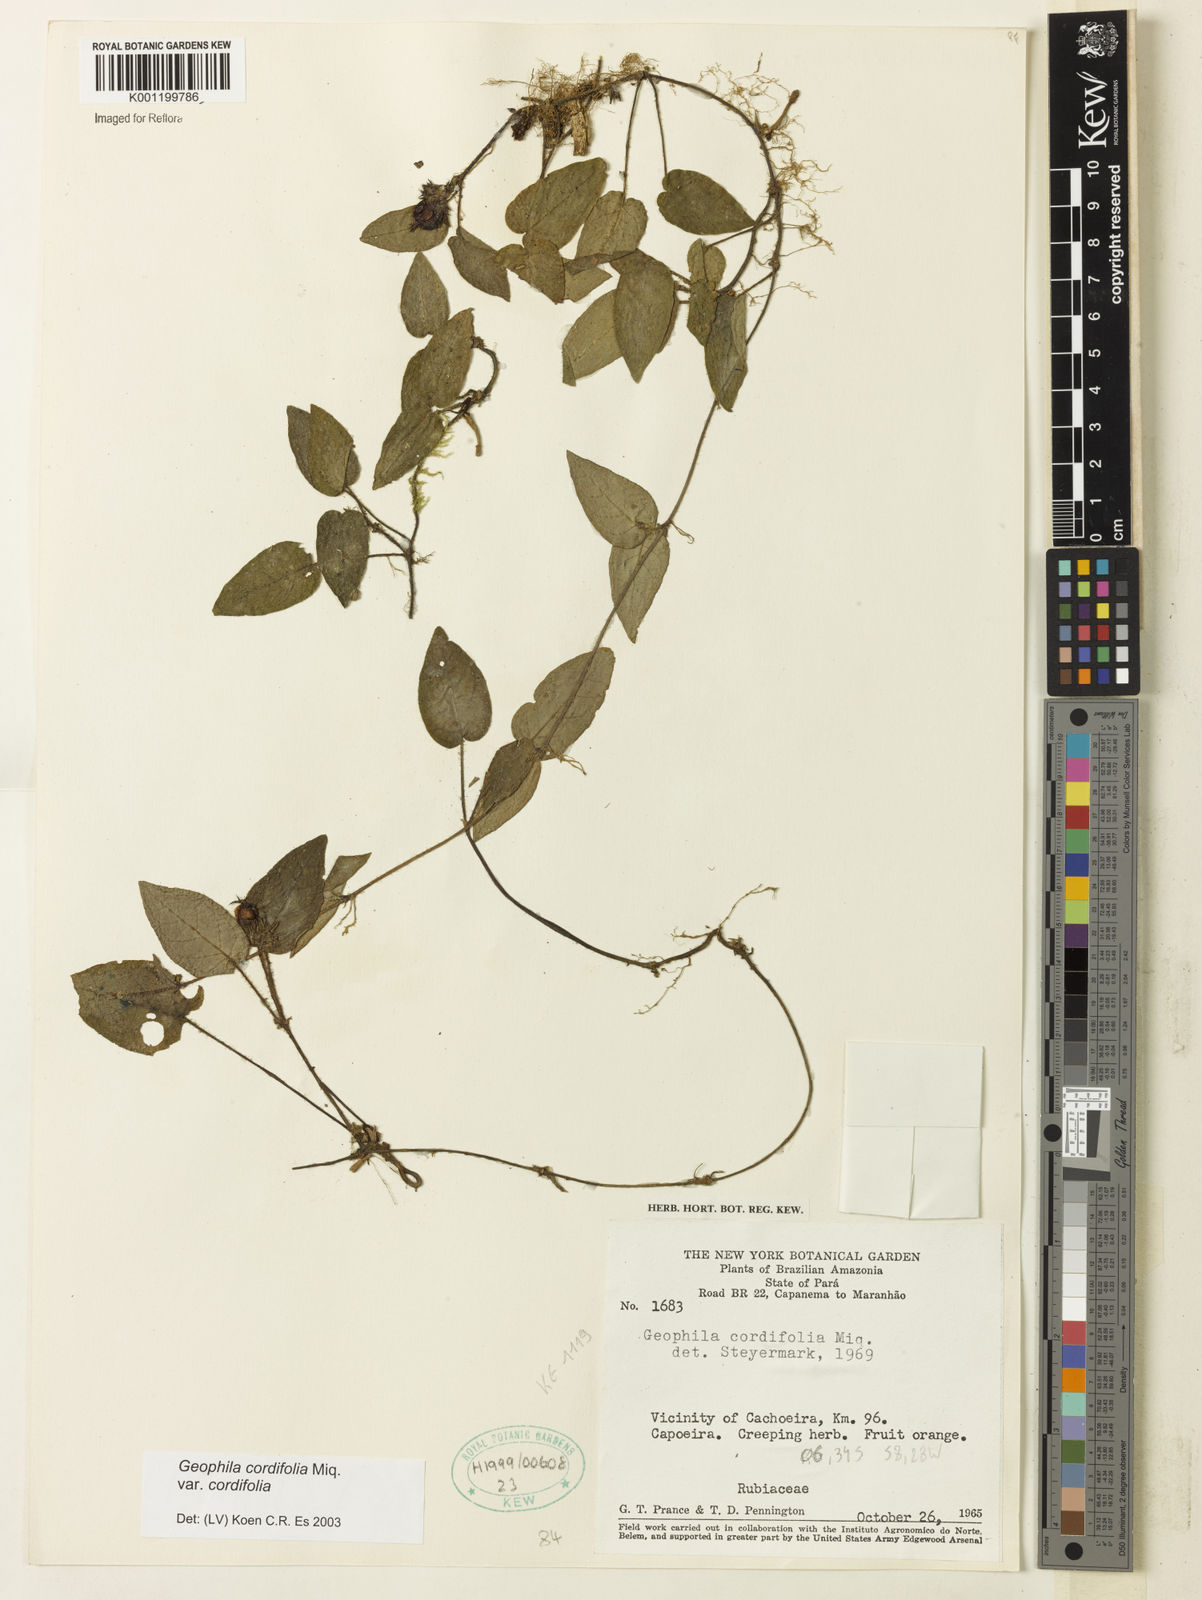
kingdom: Plantae
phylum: Tracheophyta
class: Magnoliopsida
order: Gentianales
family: Rubiaceae
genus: Geophila
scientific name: Geophila cordifolia
